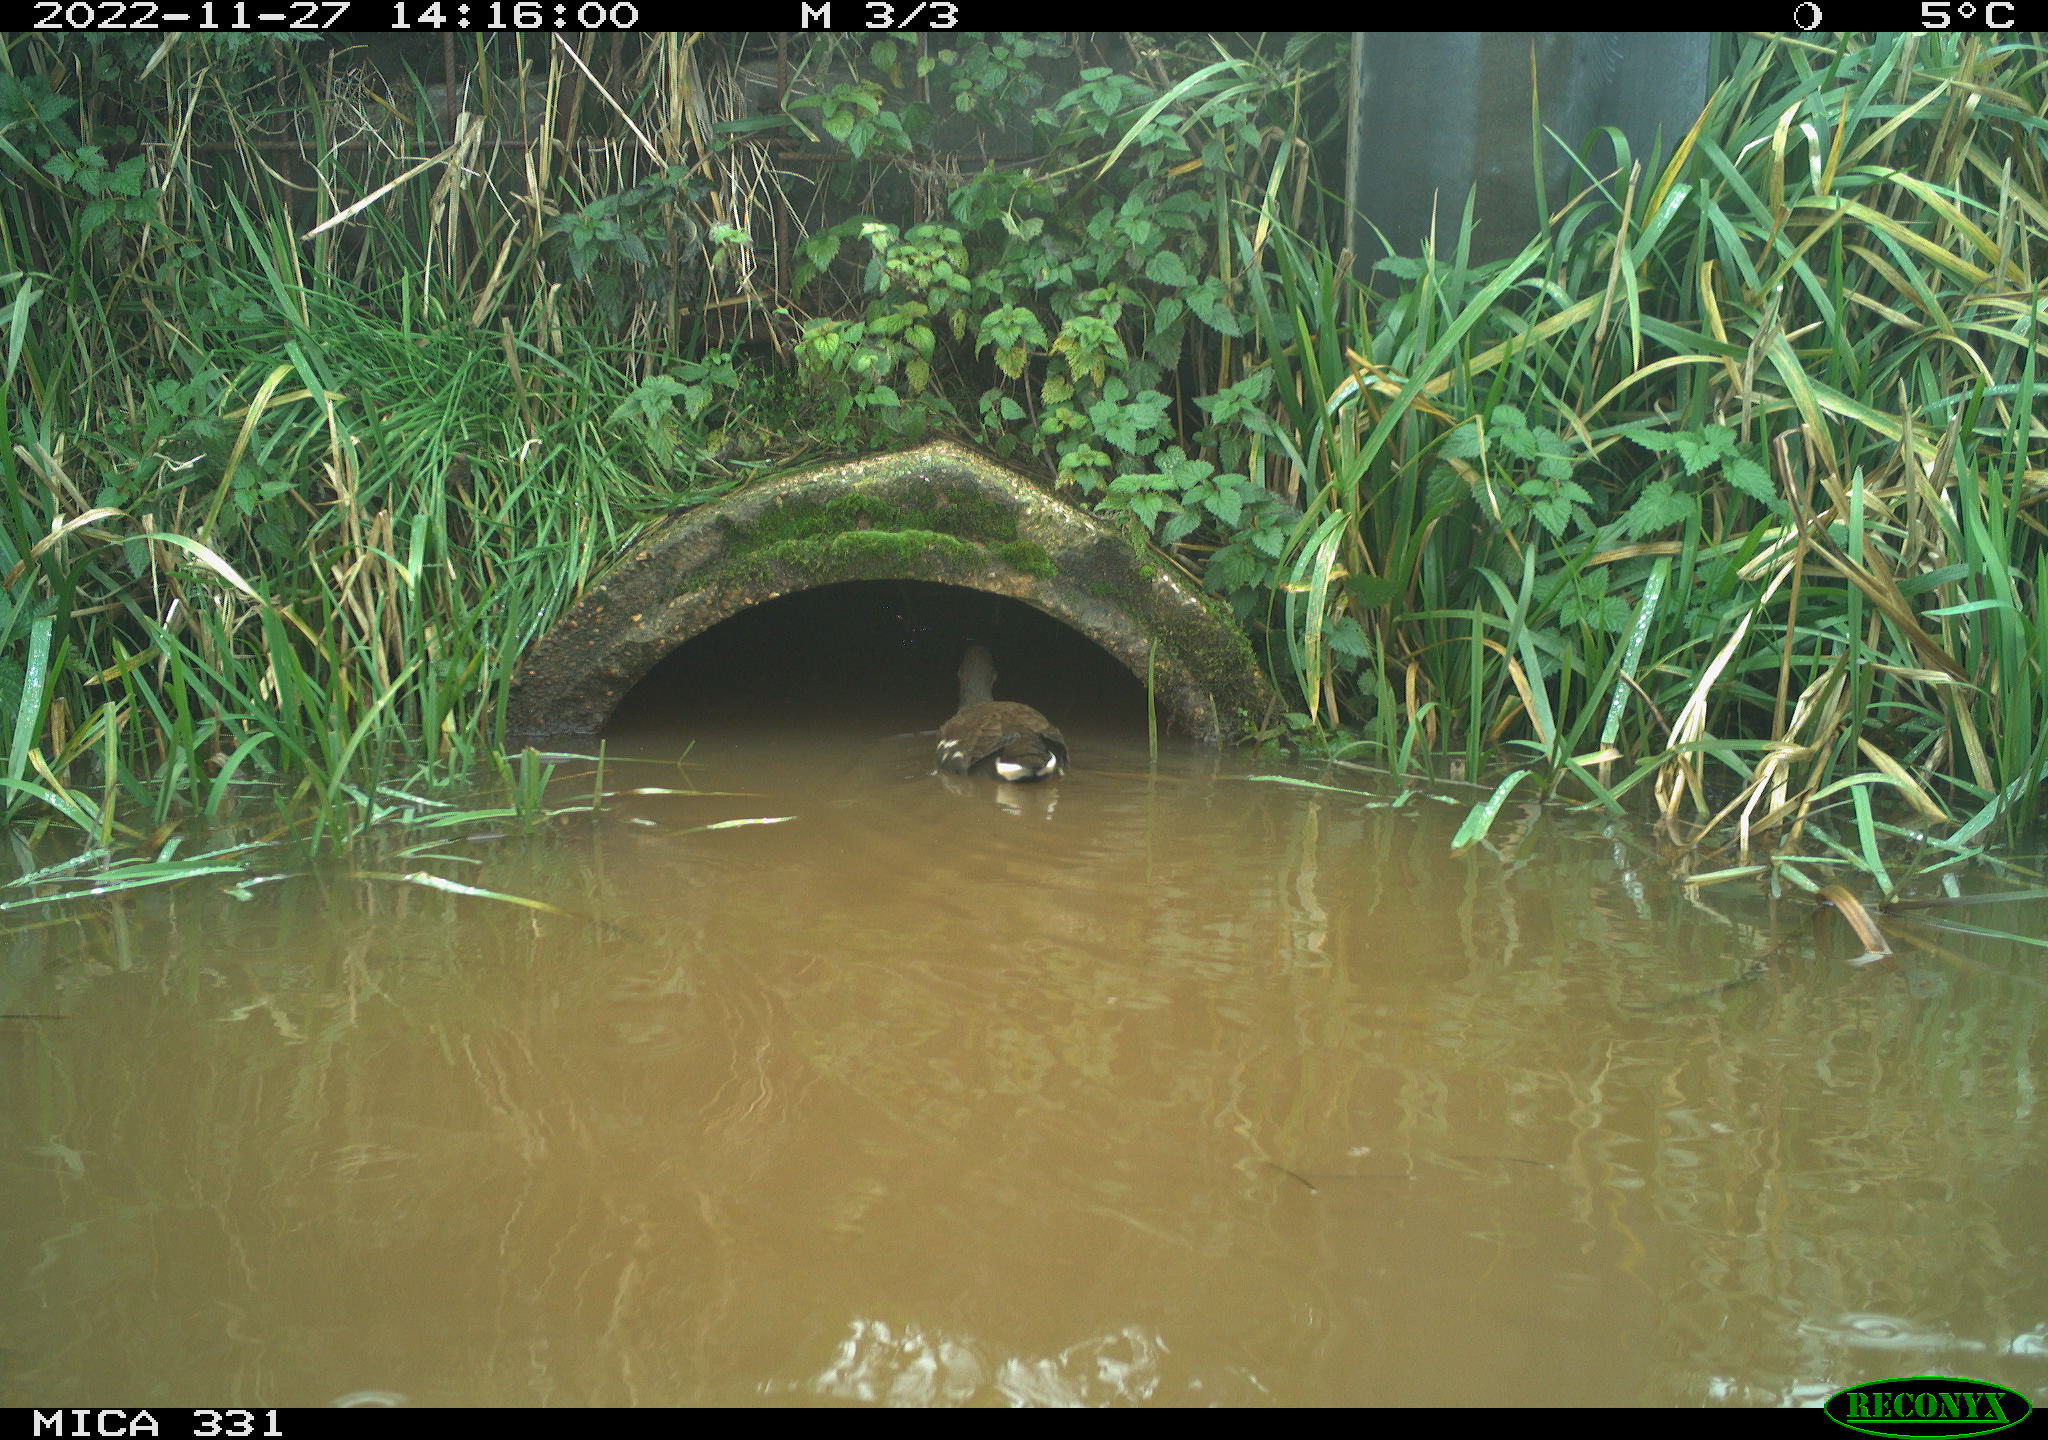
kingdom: Animalia
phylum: Chordata
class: Aves
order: Gruiformes
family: Rallidae
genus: Gallinula
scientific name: Gallinula chloropus
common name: Common moorhen
